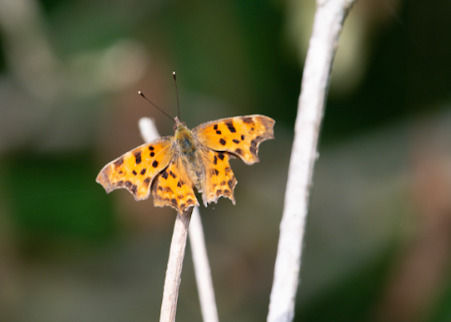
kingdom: Animalia
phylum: Arthropoda
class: Insecta
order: Lepidoptera
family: Nymphalidae
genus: Polygonia
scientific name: Polygonia c-album
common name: Det hvide C
